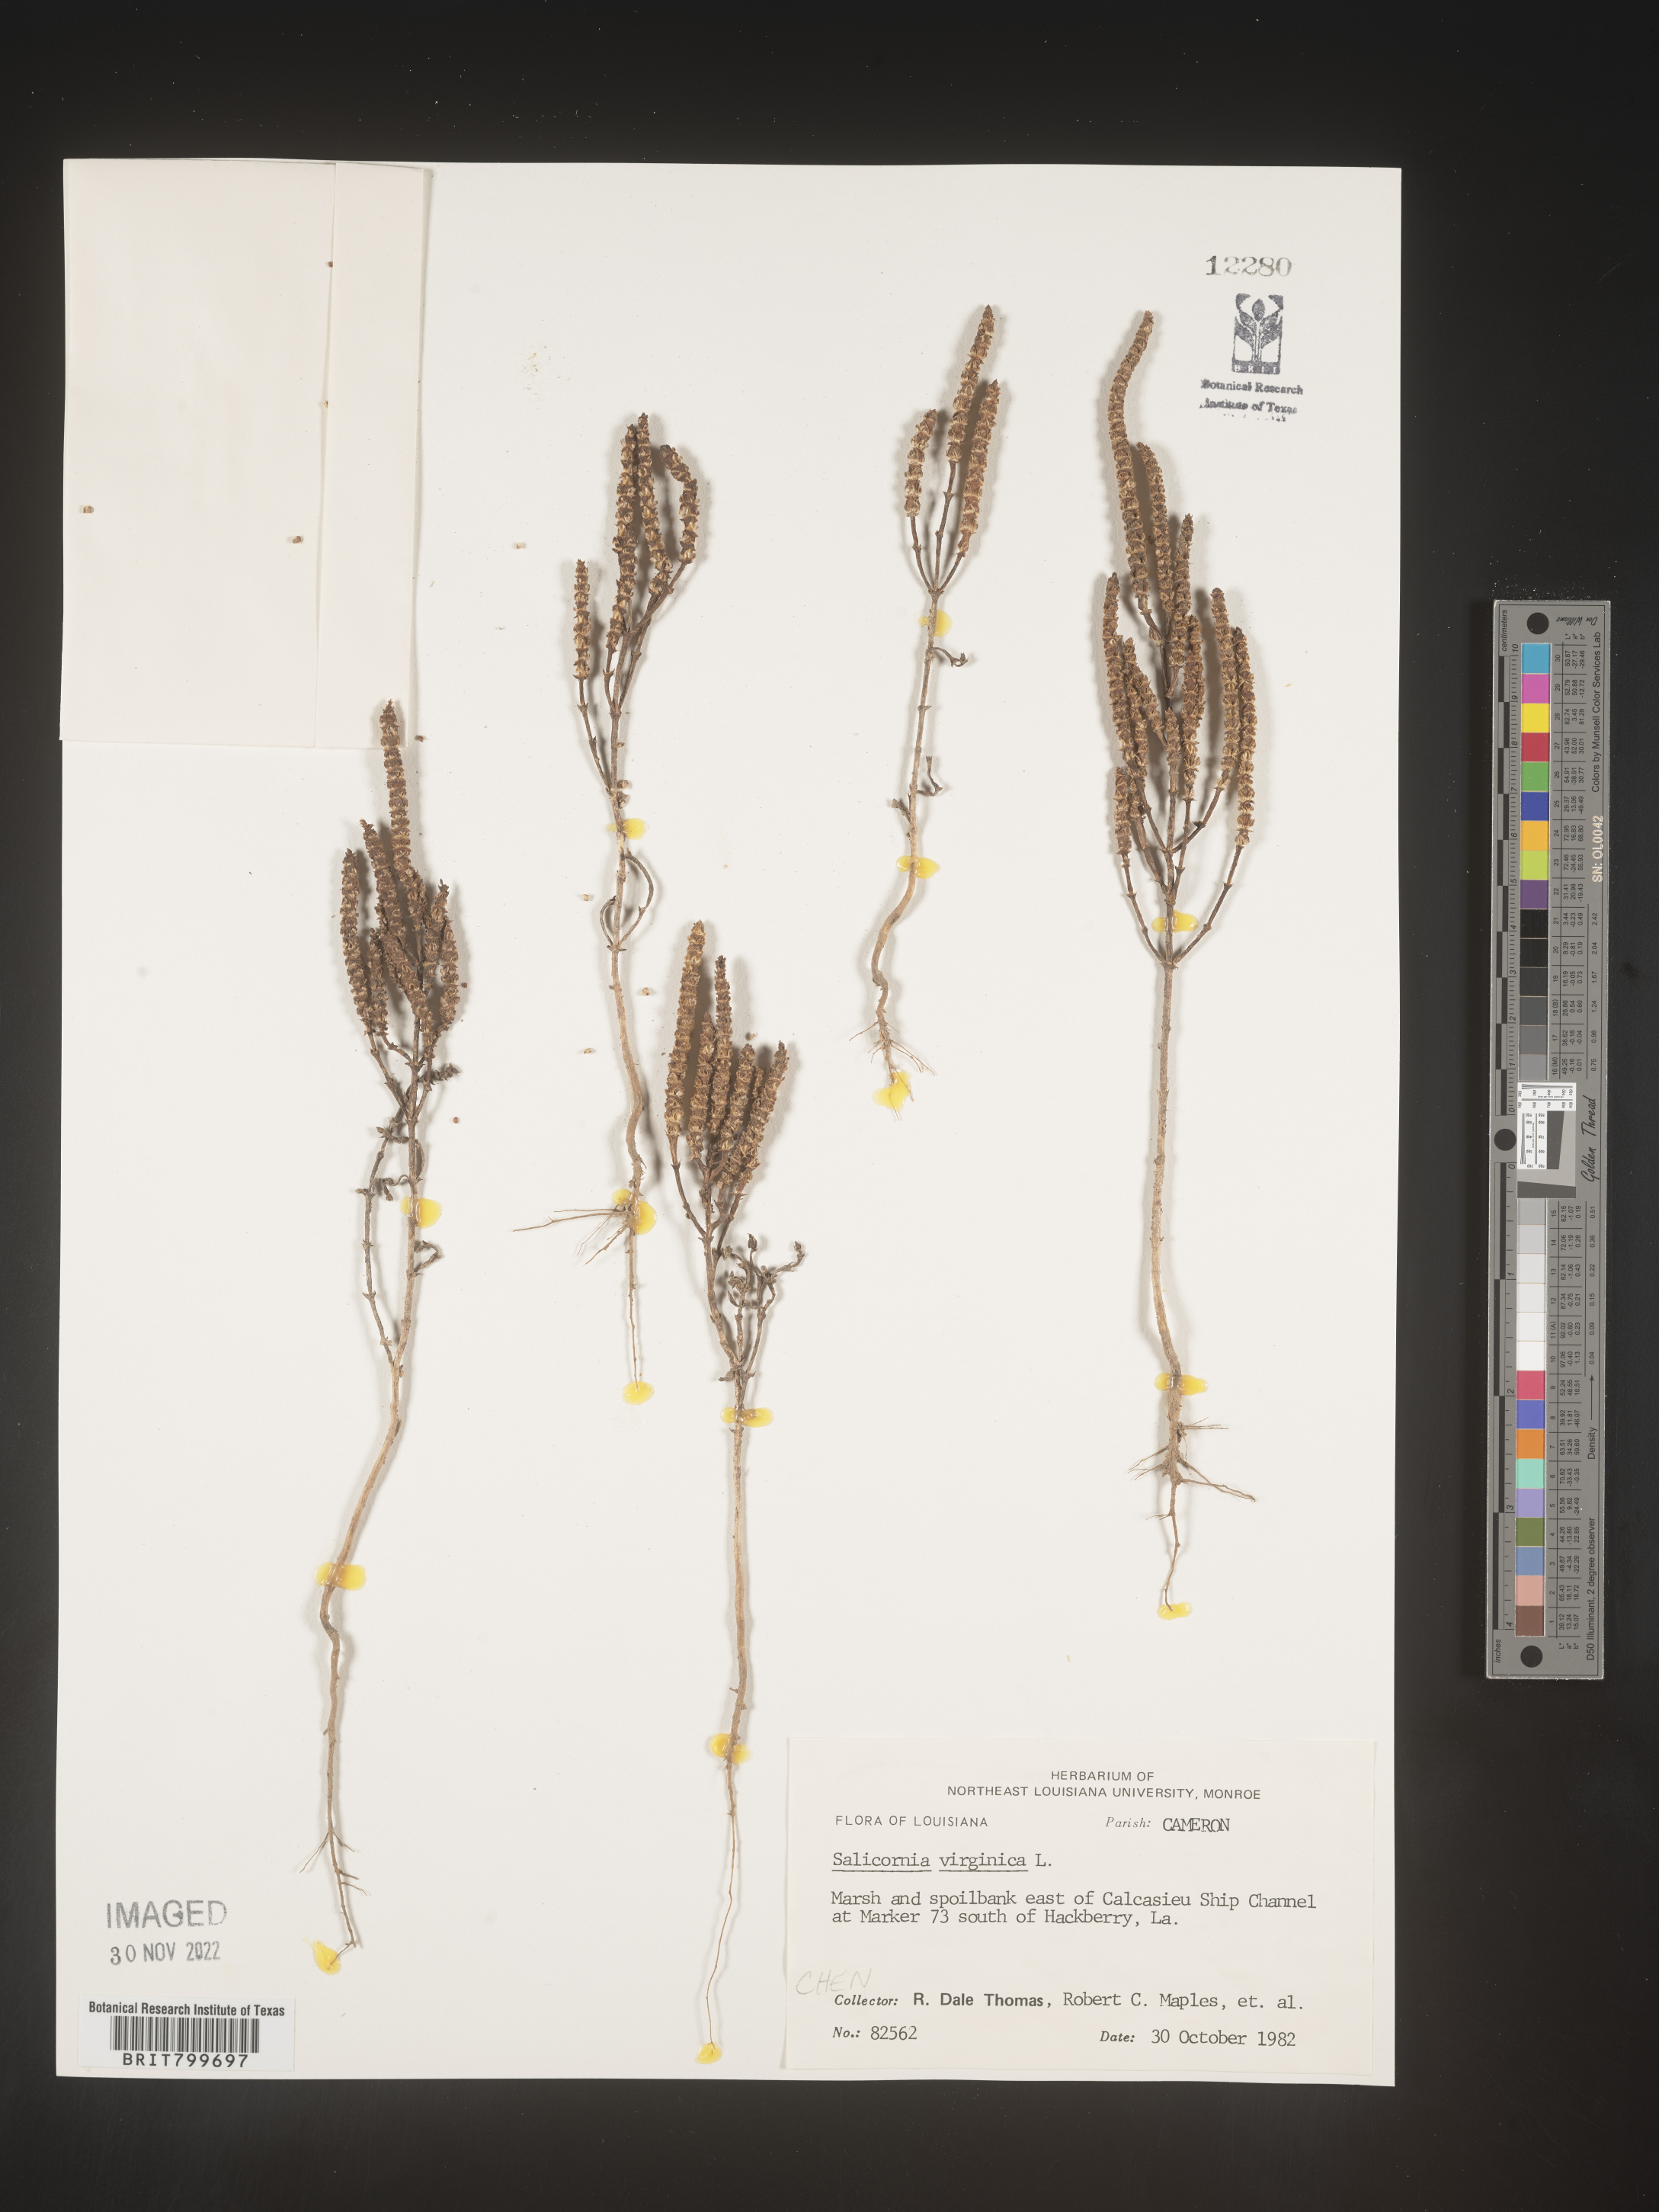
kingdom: Plantae
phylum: Tracheophyta
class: Magnoliopsida
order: Caryophyllales
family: Amaranthaceae
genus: Salicornia
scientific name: Salicornia virginica
